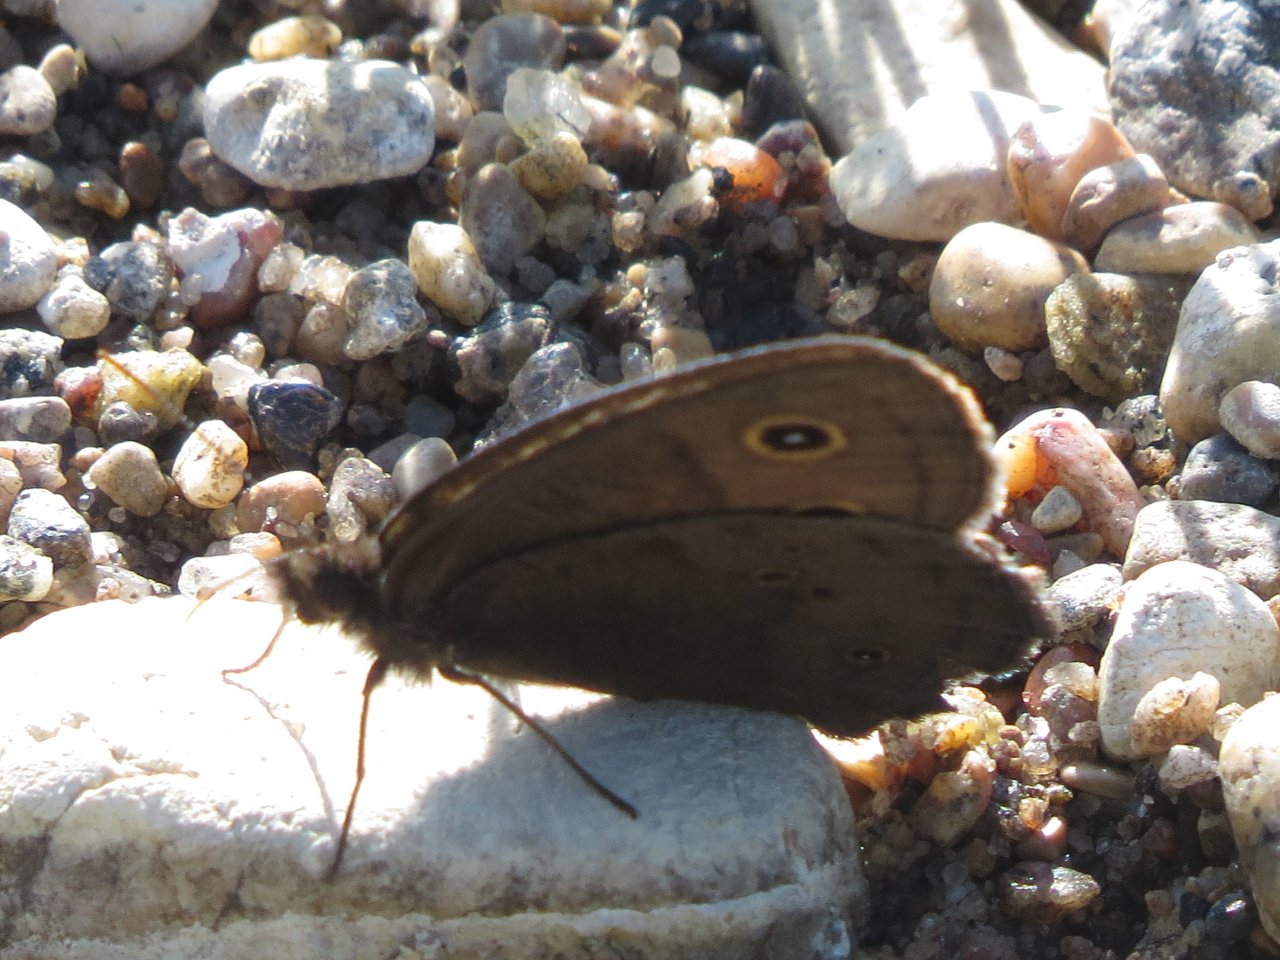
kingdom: Animalia
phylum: Arthropoda
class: Insecta
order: Lepidoptera
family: Nymphalidae
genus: Cercyonis
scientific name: Cercyonis pegala
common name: Common Wood-Nymph
